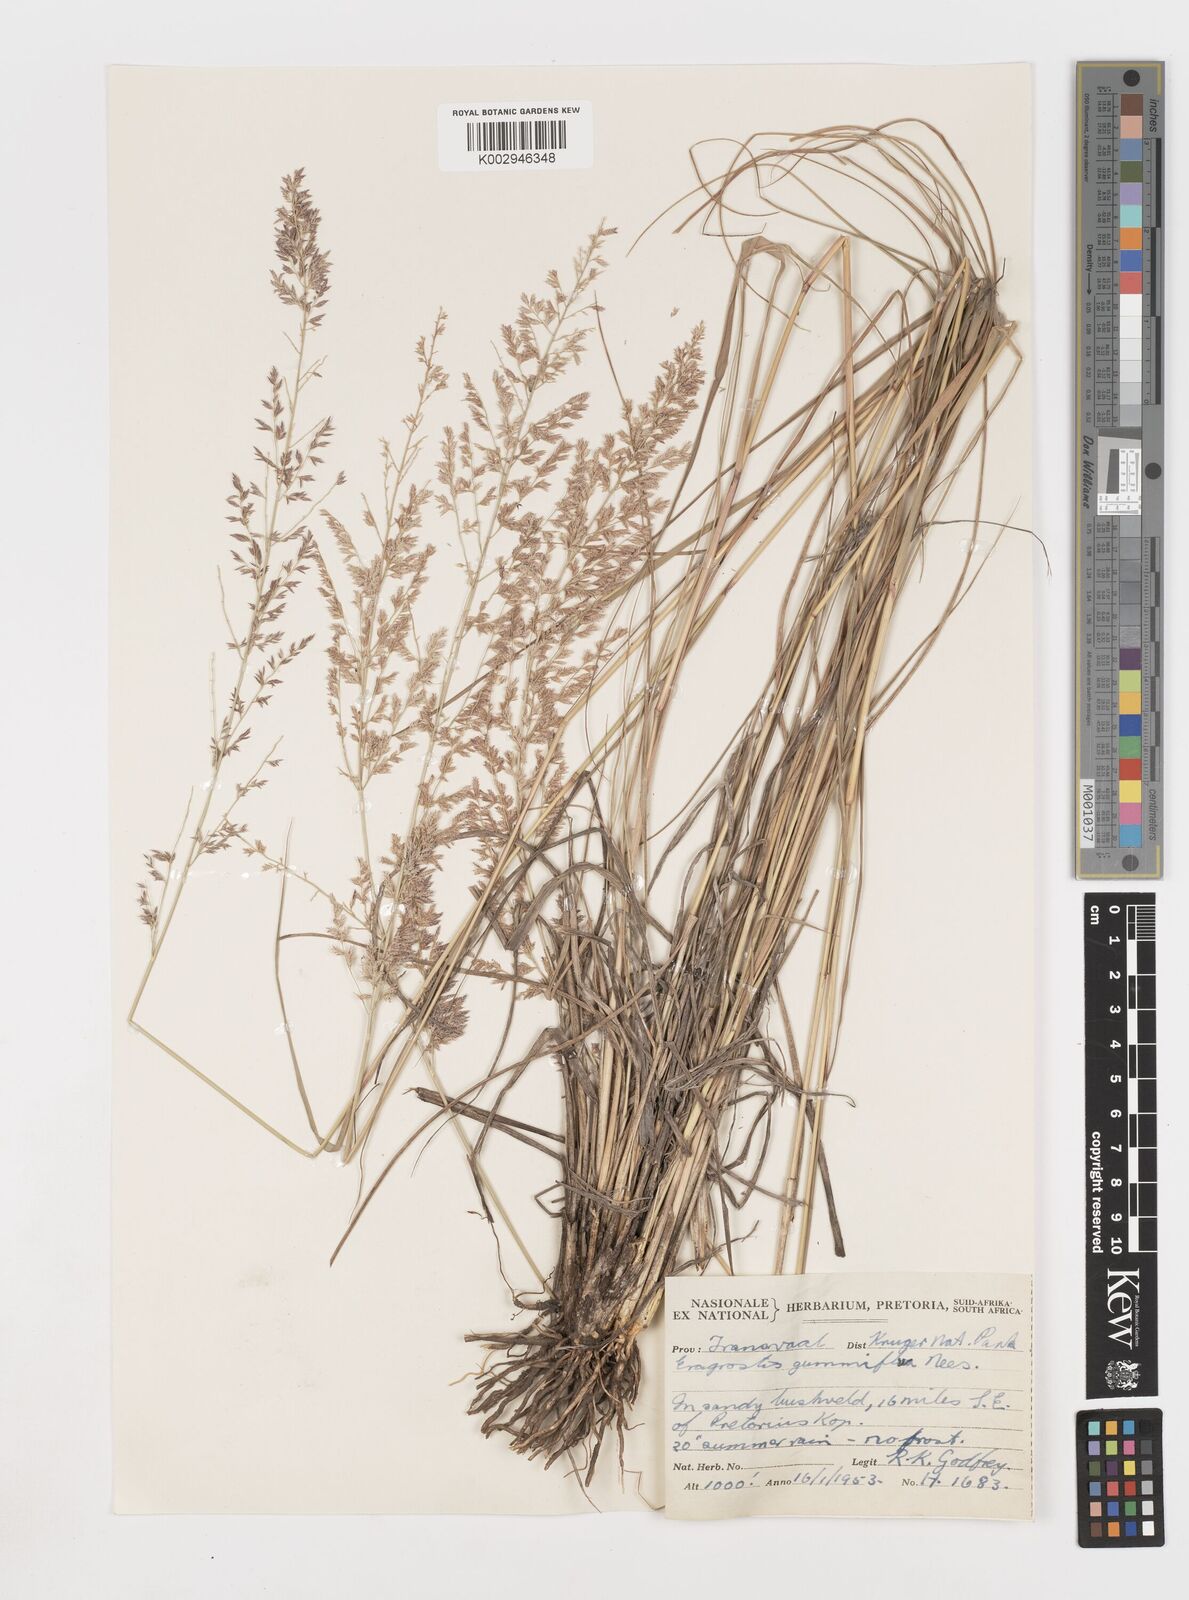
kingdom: Plantae
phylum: Tracheophyta
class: Liliopsida
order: Poales
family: Poaceae
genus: Eragrostis
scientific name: Eragrostis gummiflua
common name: Gum grass
